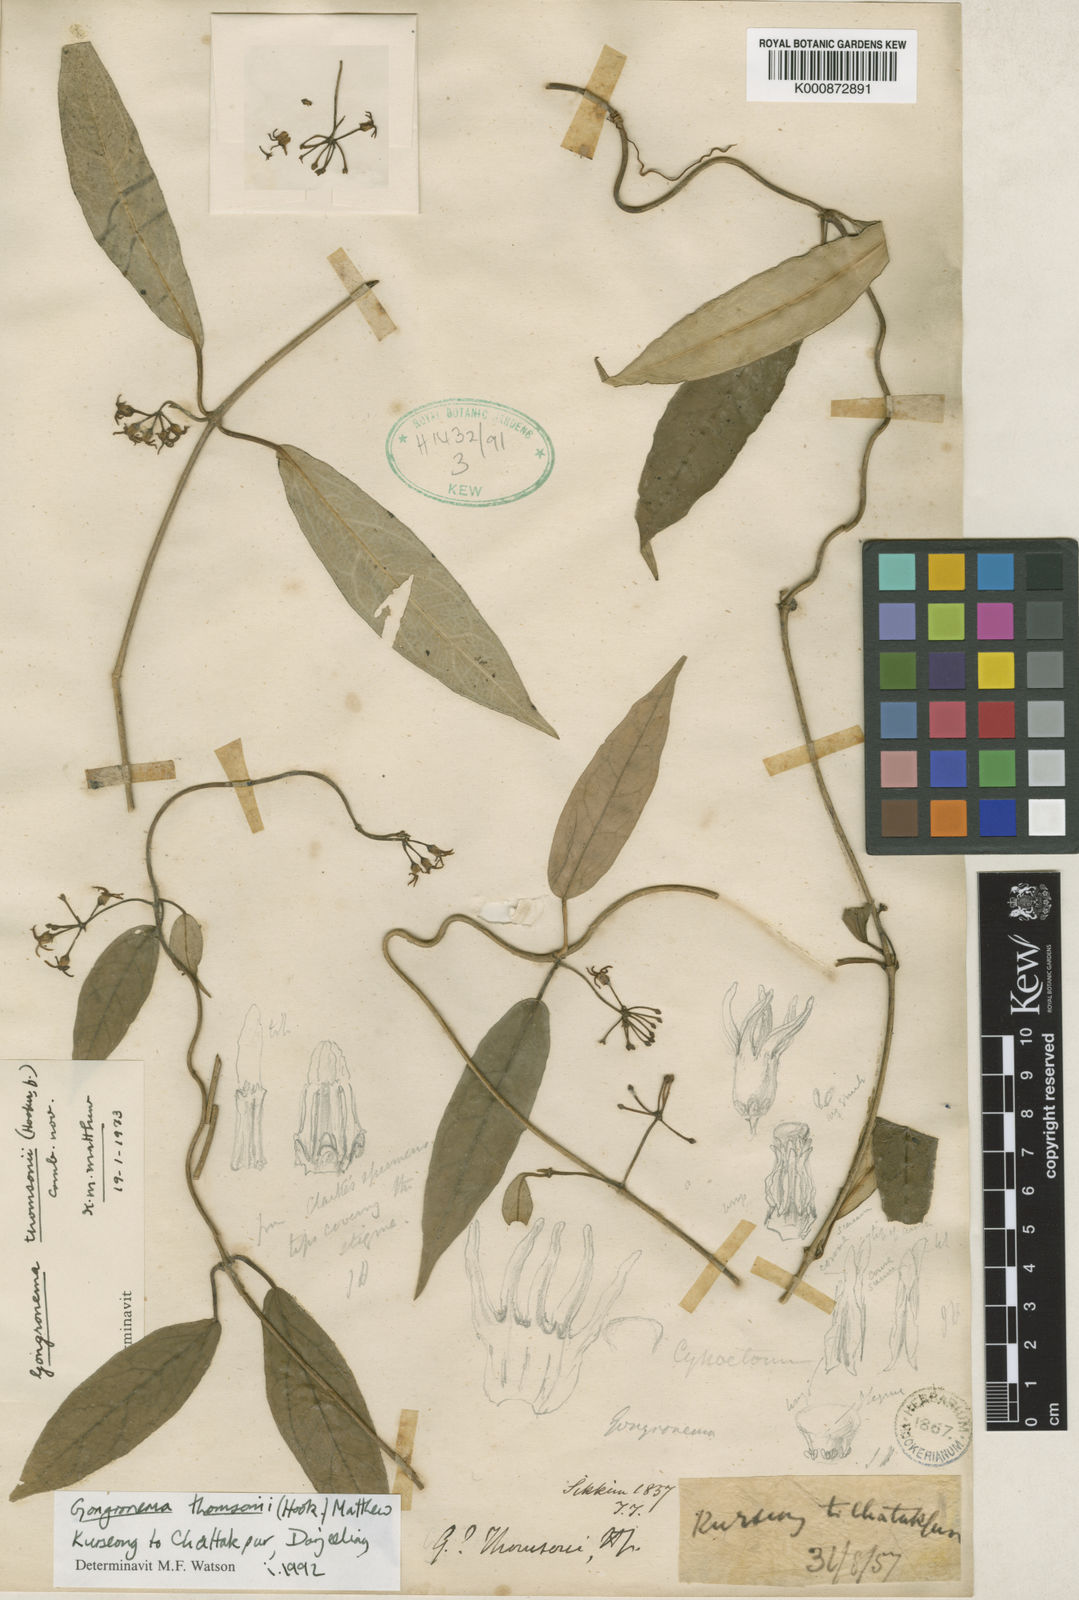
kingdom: Plantae
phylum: Tracheophyta
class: Magnoliopsida
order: Gentianales
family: Apocynaceae
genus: Gongronema
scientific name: Gongronema thomsonii
